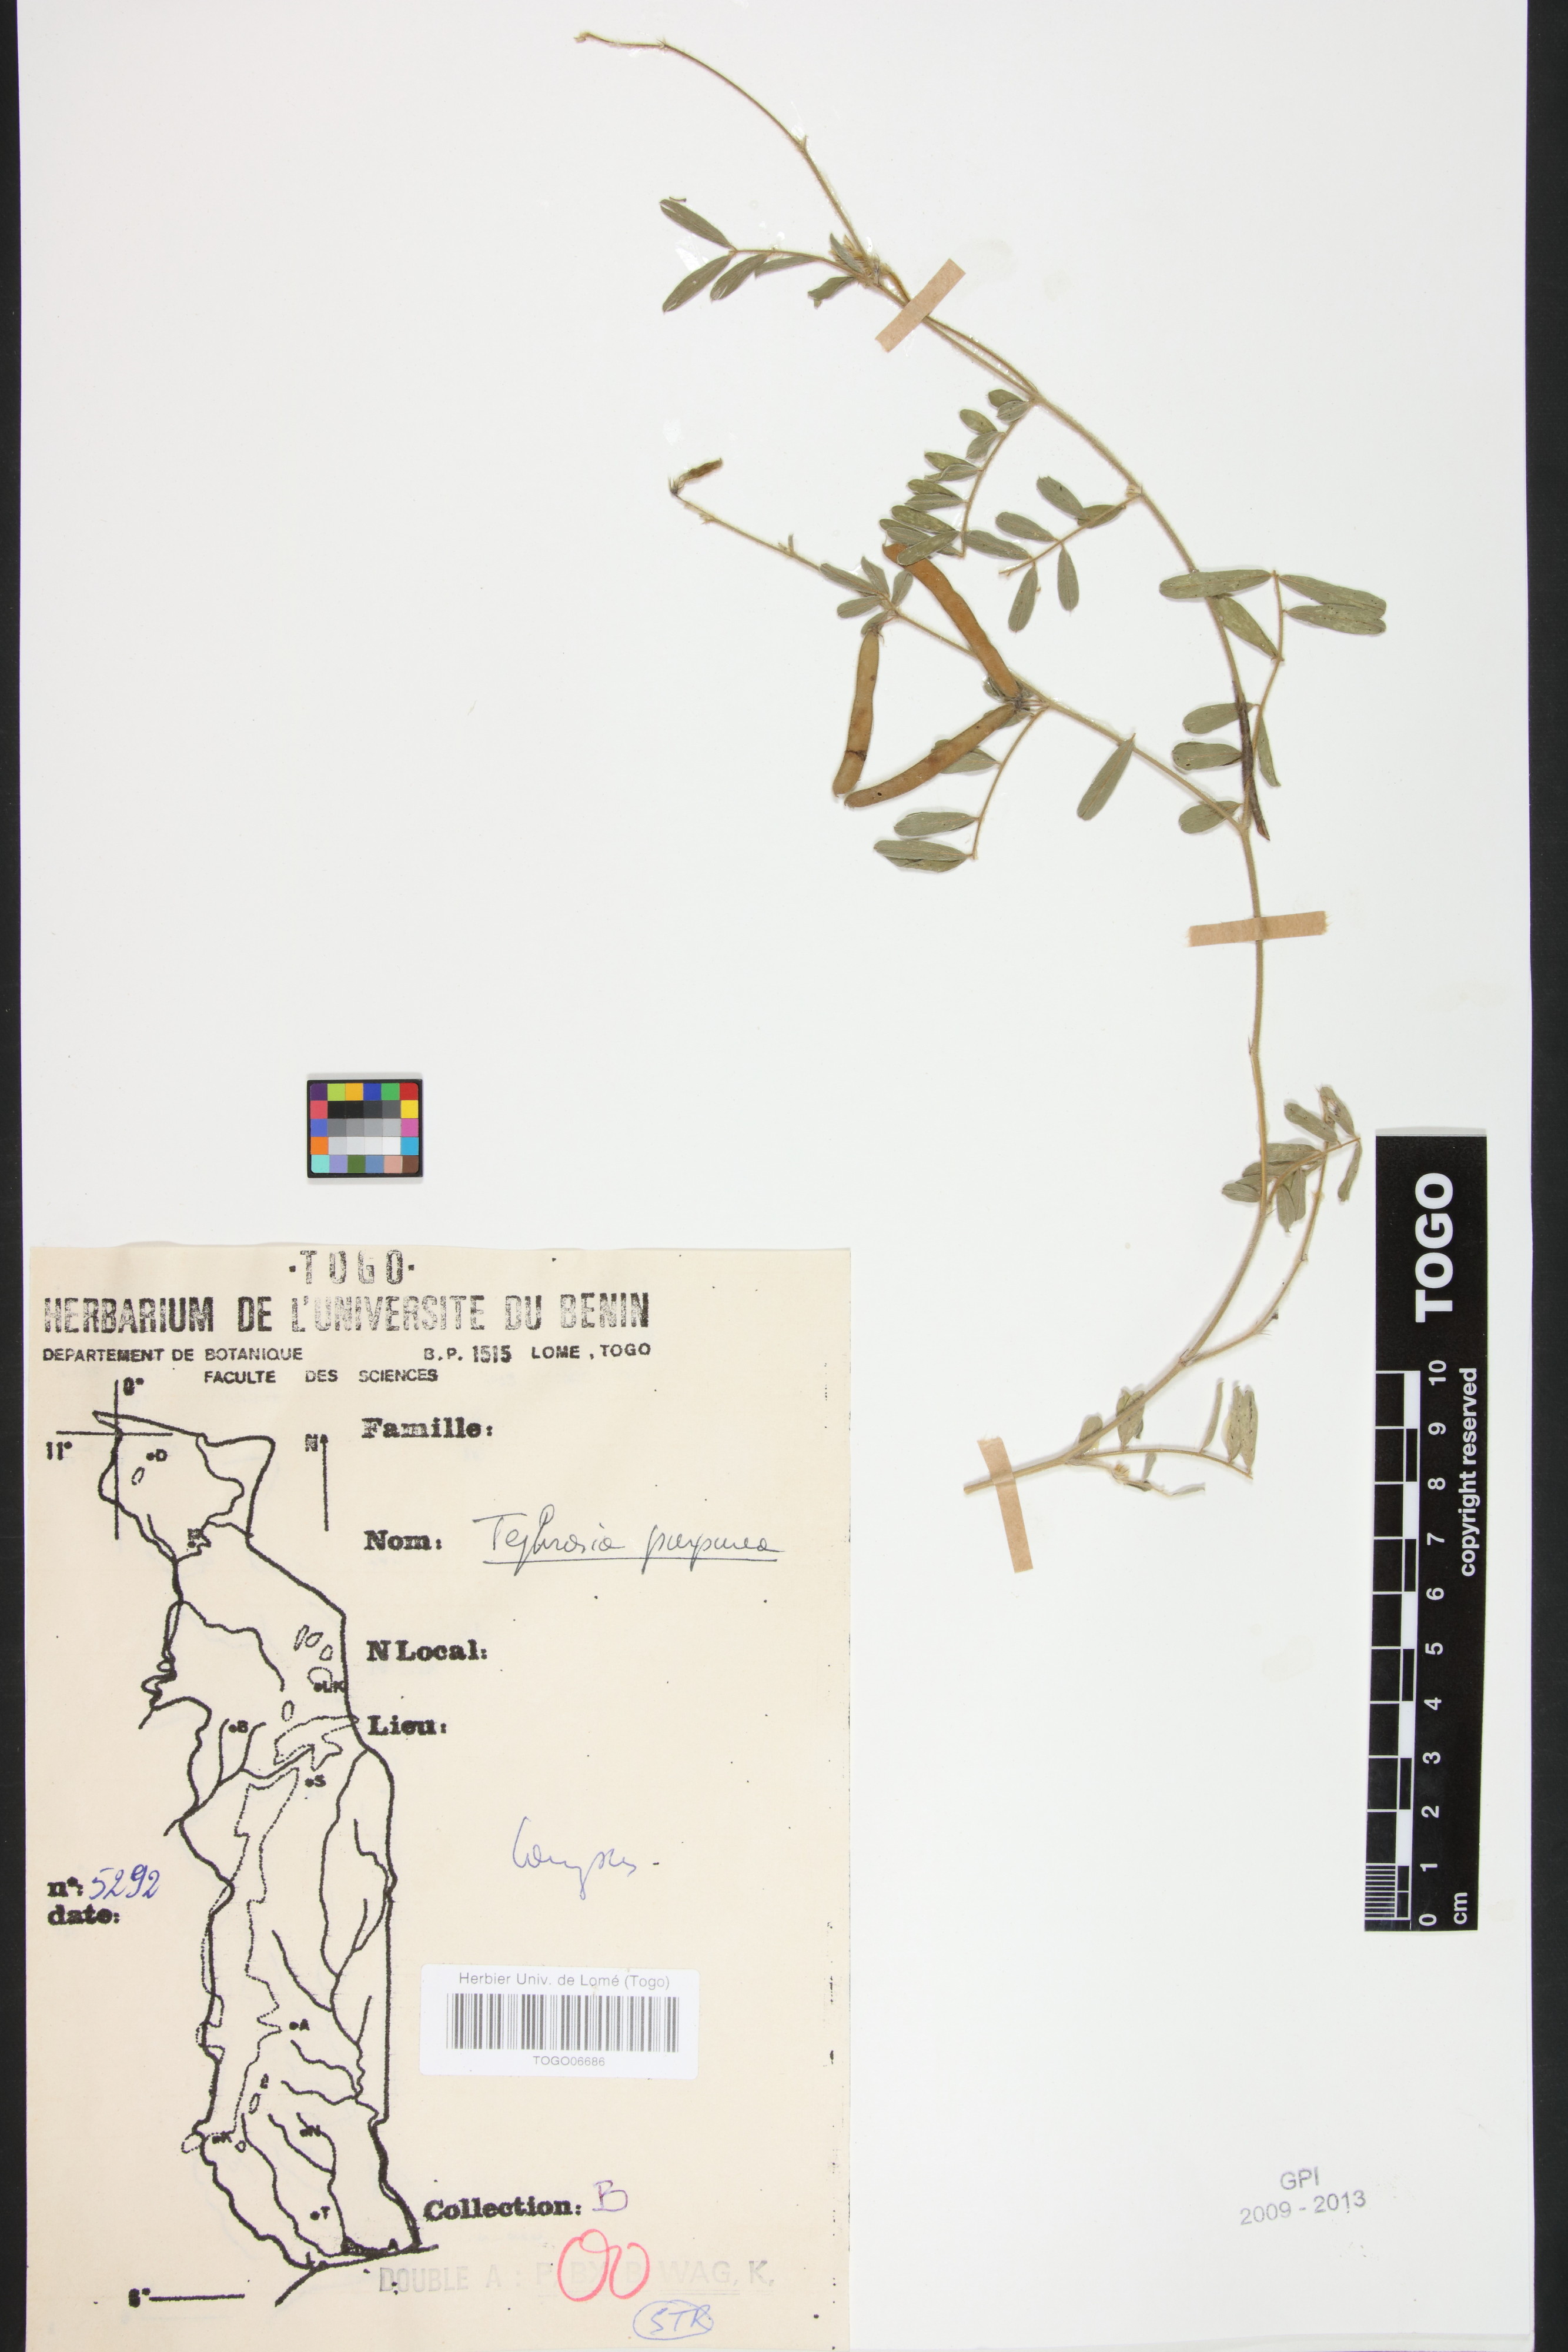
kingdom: Plantae
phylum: Tracheophyta
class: Magnoliopsida
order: Fabales
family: Fabaceae
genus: Tephrosia
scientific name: Tephrosia purpurea
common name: Fishpoison
